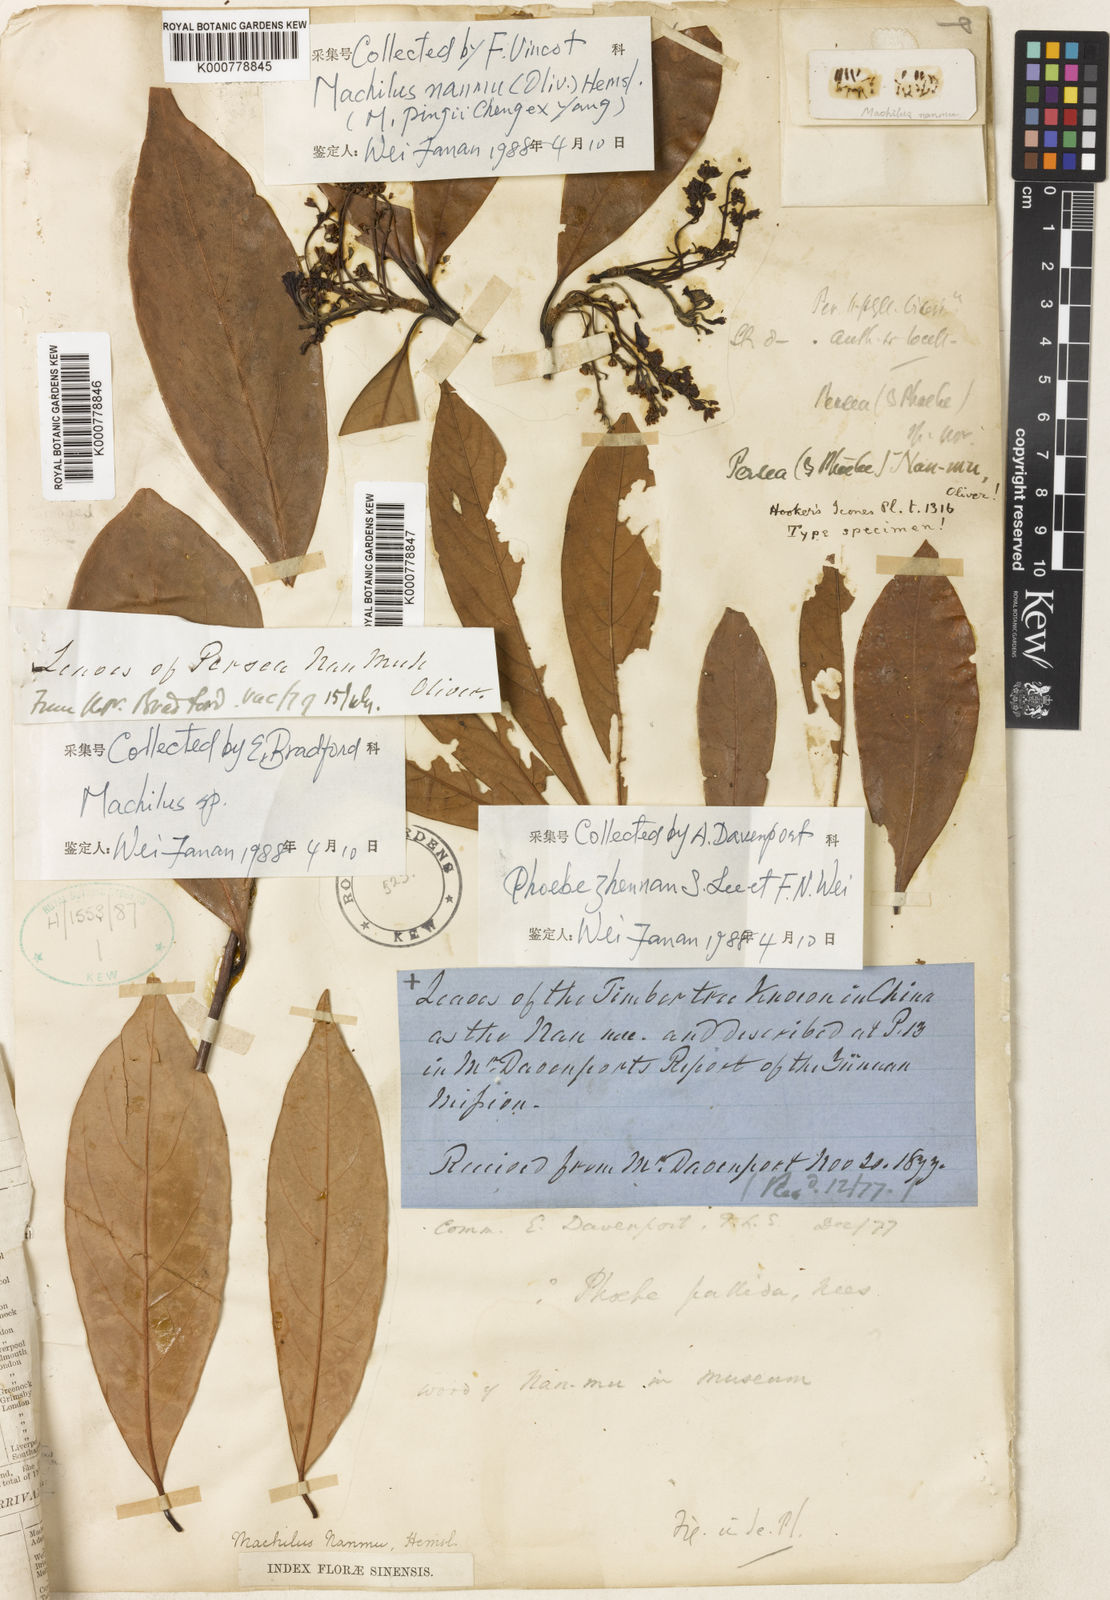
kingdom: Plantae
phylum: Tracheophyta
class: Magnoliopsida
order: Laurales
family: Lauraceae
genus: Machilus
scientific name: Machilus nanmu
